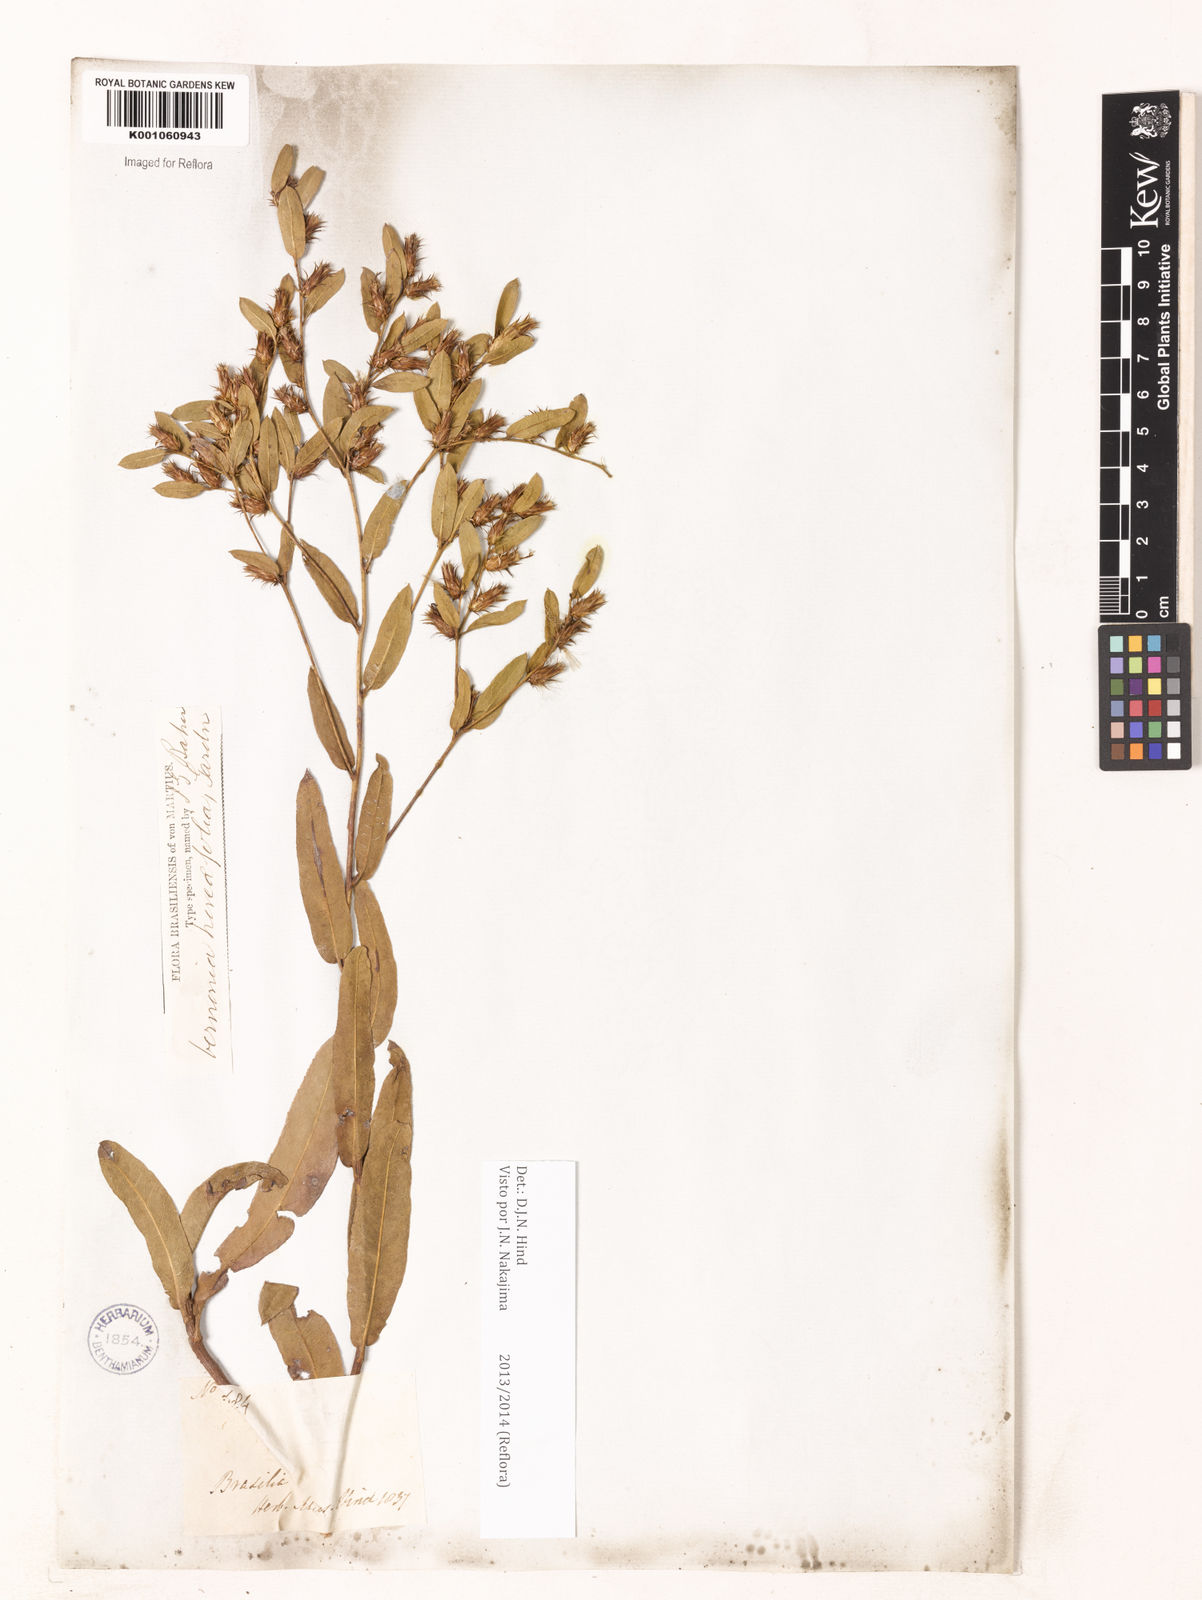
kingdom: Plantae
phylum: Tracheophyta
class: Magnoliopsida
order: Asterales
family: Asteraceae
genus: Lessingianthus
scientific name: Lessingianthus hoveifolius
